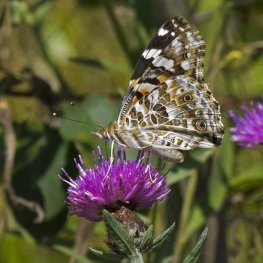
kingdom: Animalia
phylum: Arthropoda
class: Insecta
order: Lepidoptera
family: Nymphalidae
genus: Vanessa
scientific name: Vanessa cardui
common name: Painted Lady
